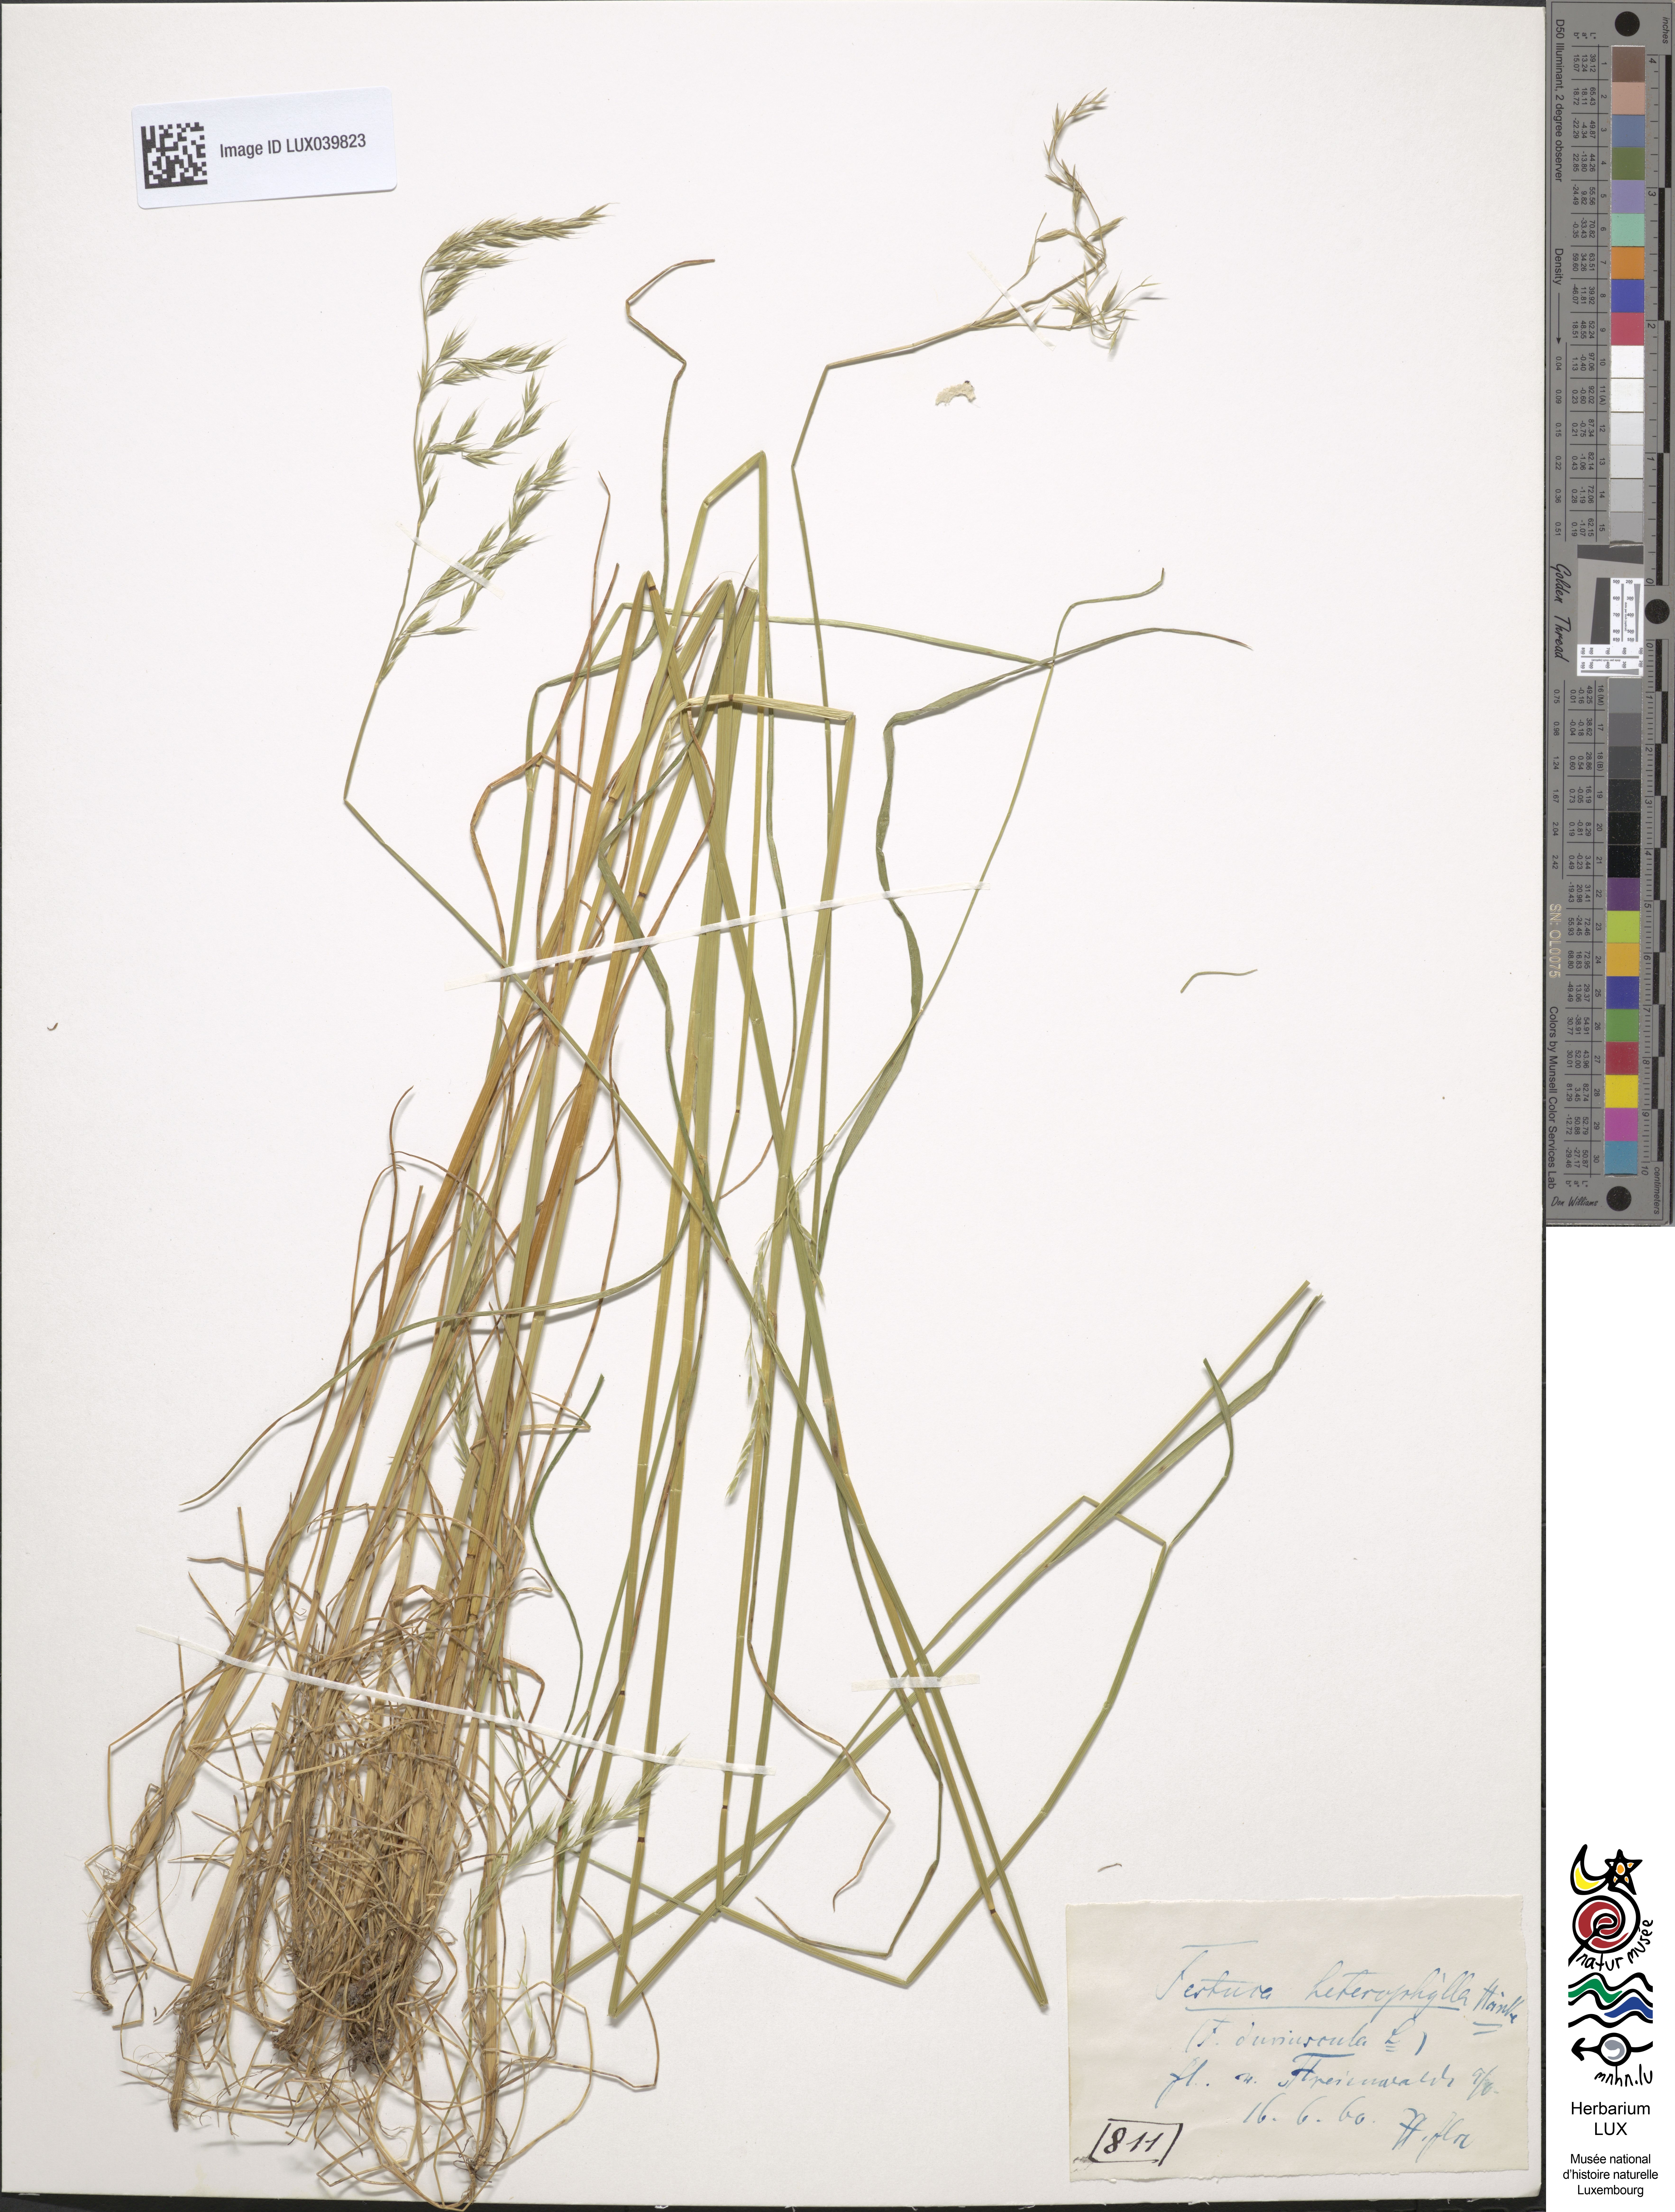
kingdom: Plantae
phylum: Tracheophyta
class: Liliopsida
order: Poales
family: Poaceae
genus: Festuca
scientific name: Festuca rubra
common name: Red fescue
